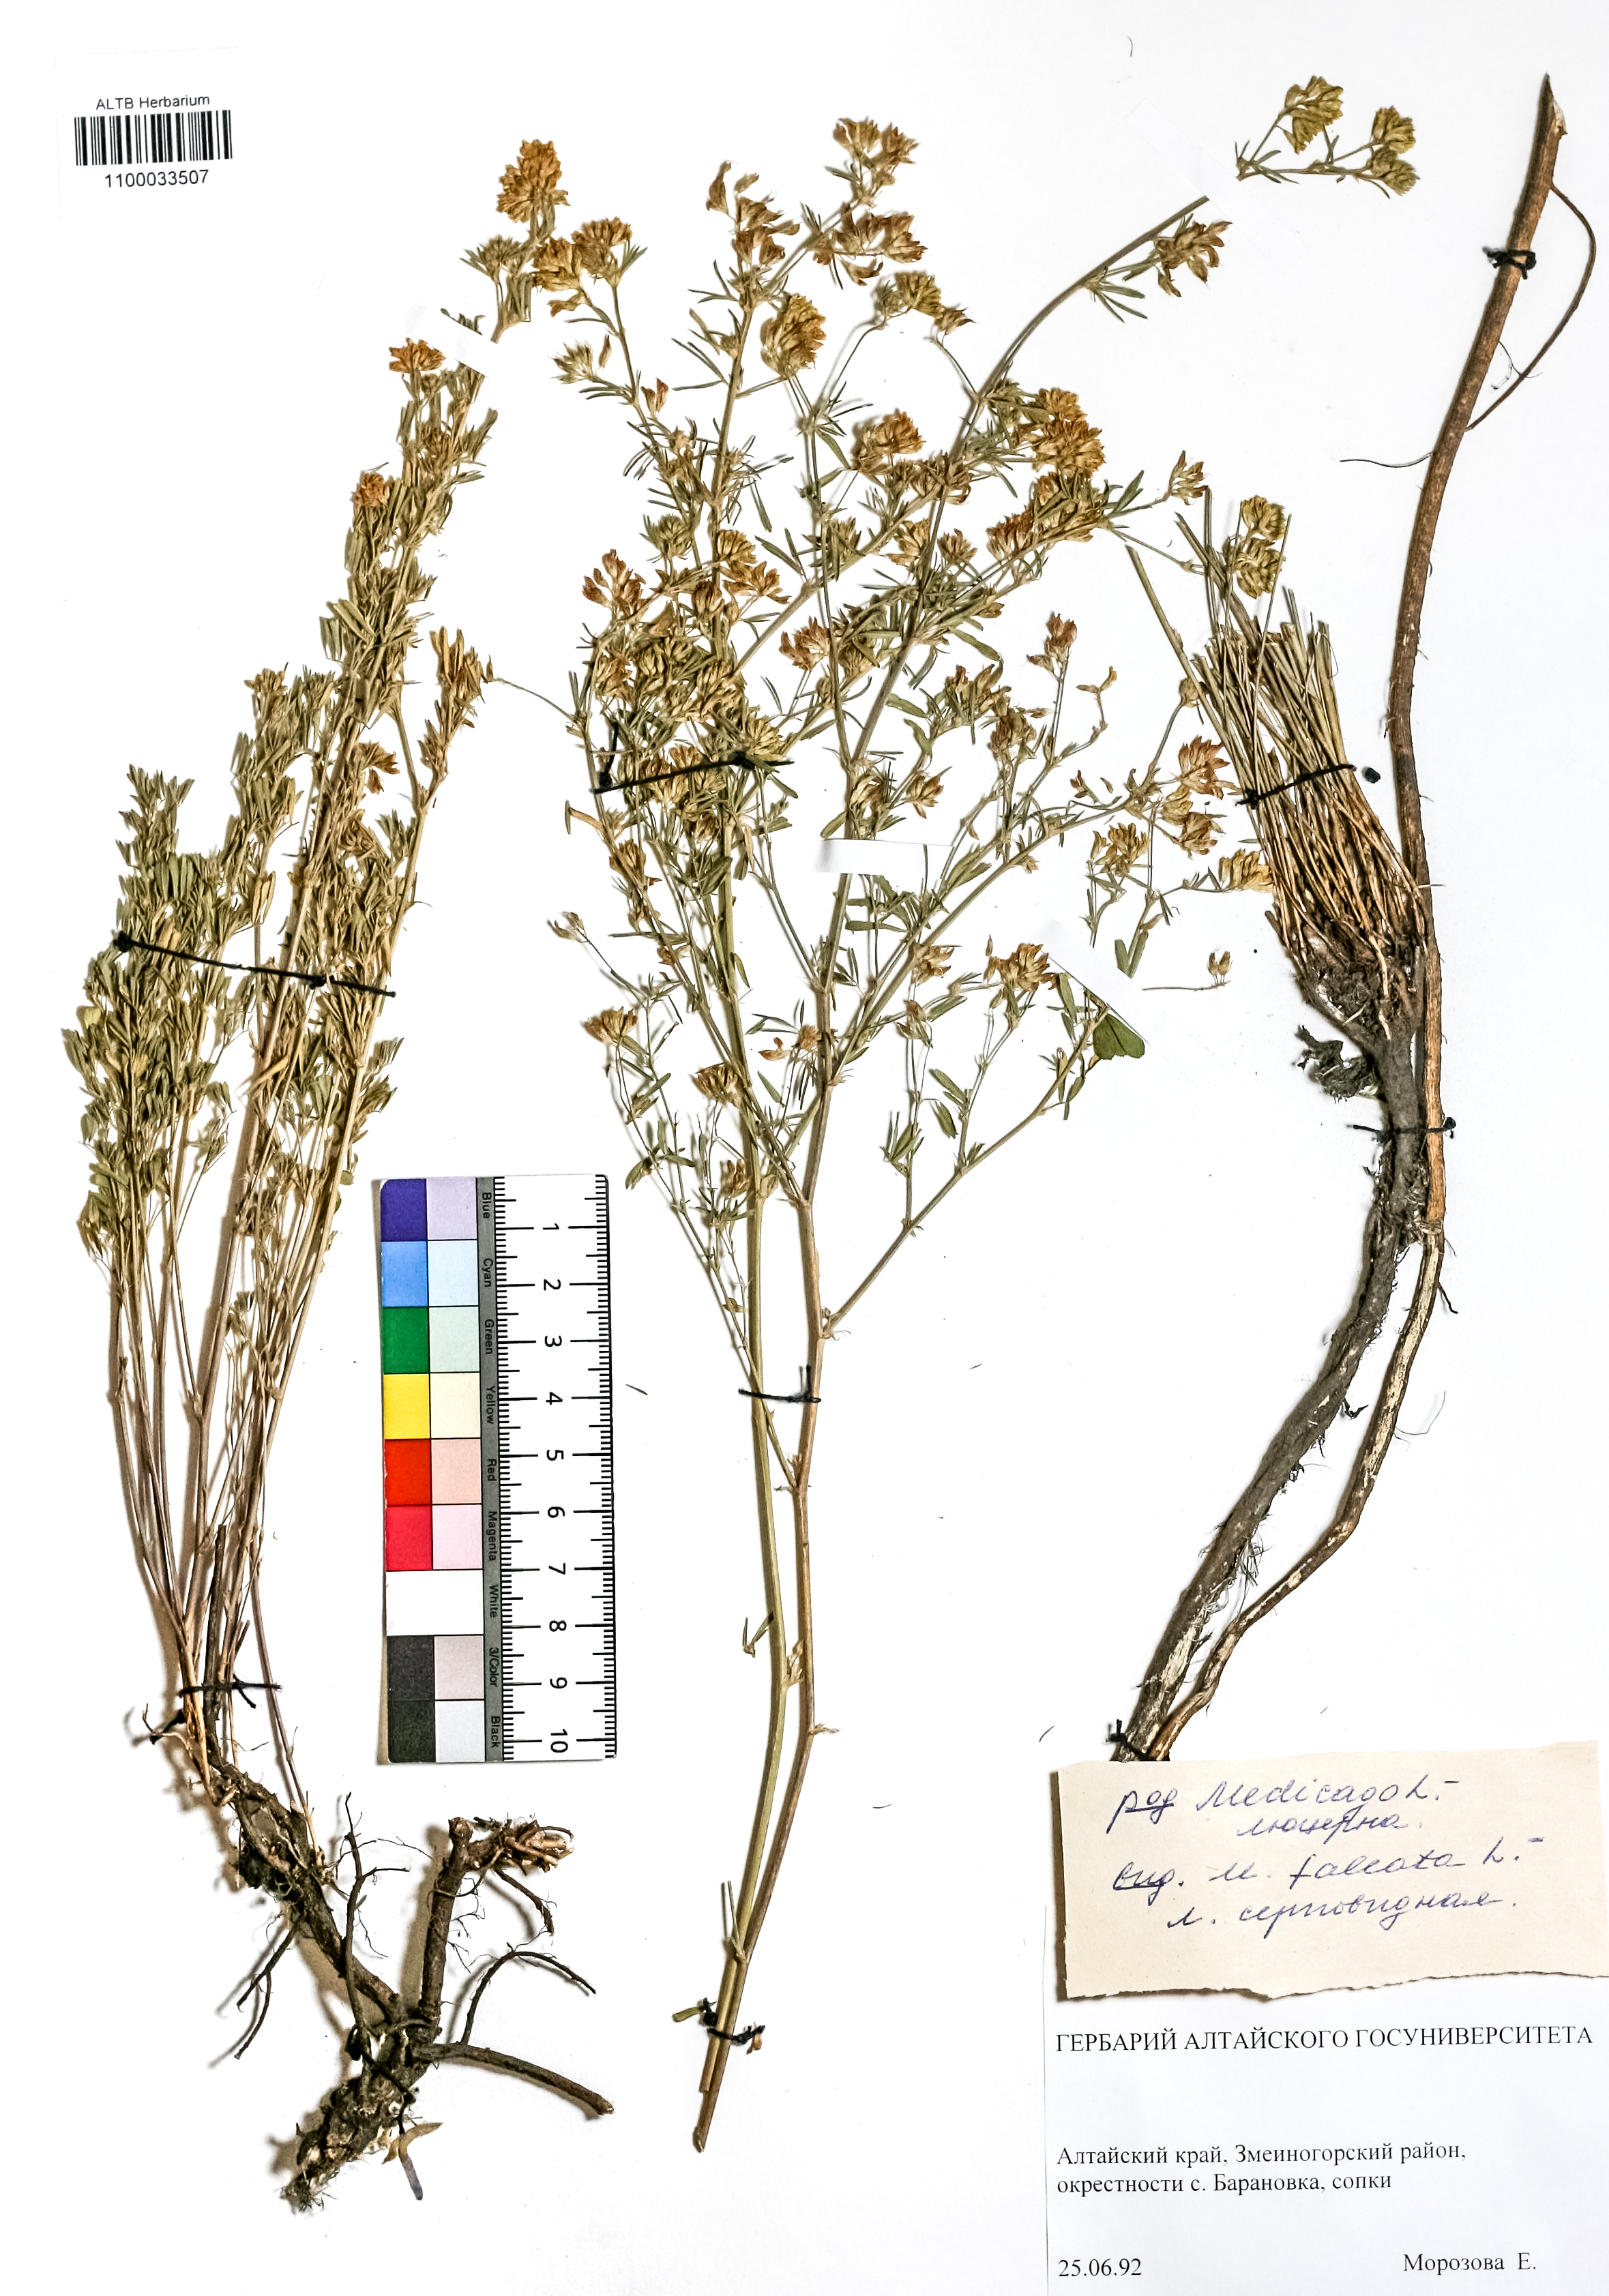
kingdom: Plantae
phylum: Tracheophyta
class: Magnoliopsida
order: Fabales
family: Fabaceae
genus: Medicago
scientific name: Medicago falcata
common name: Sickle medick
